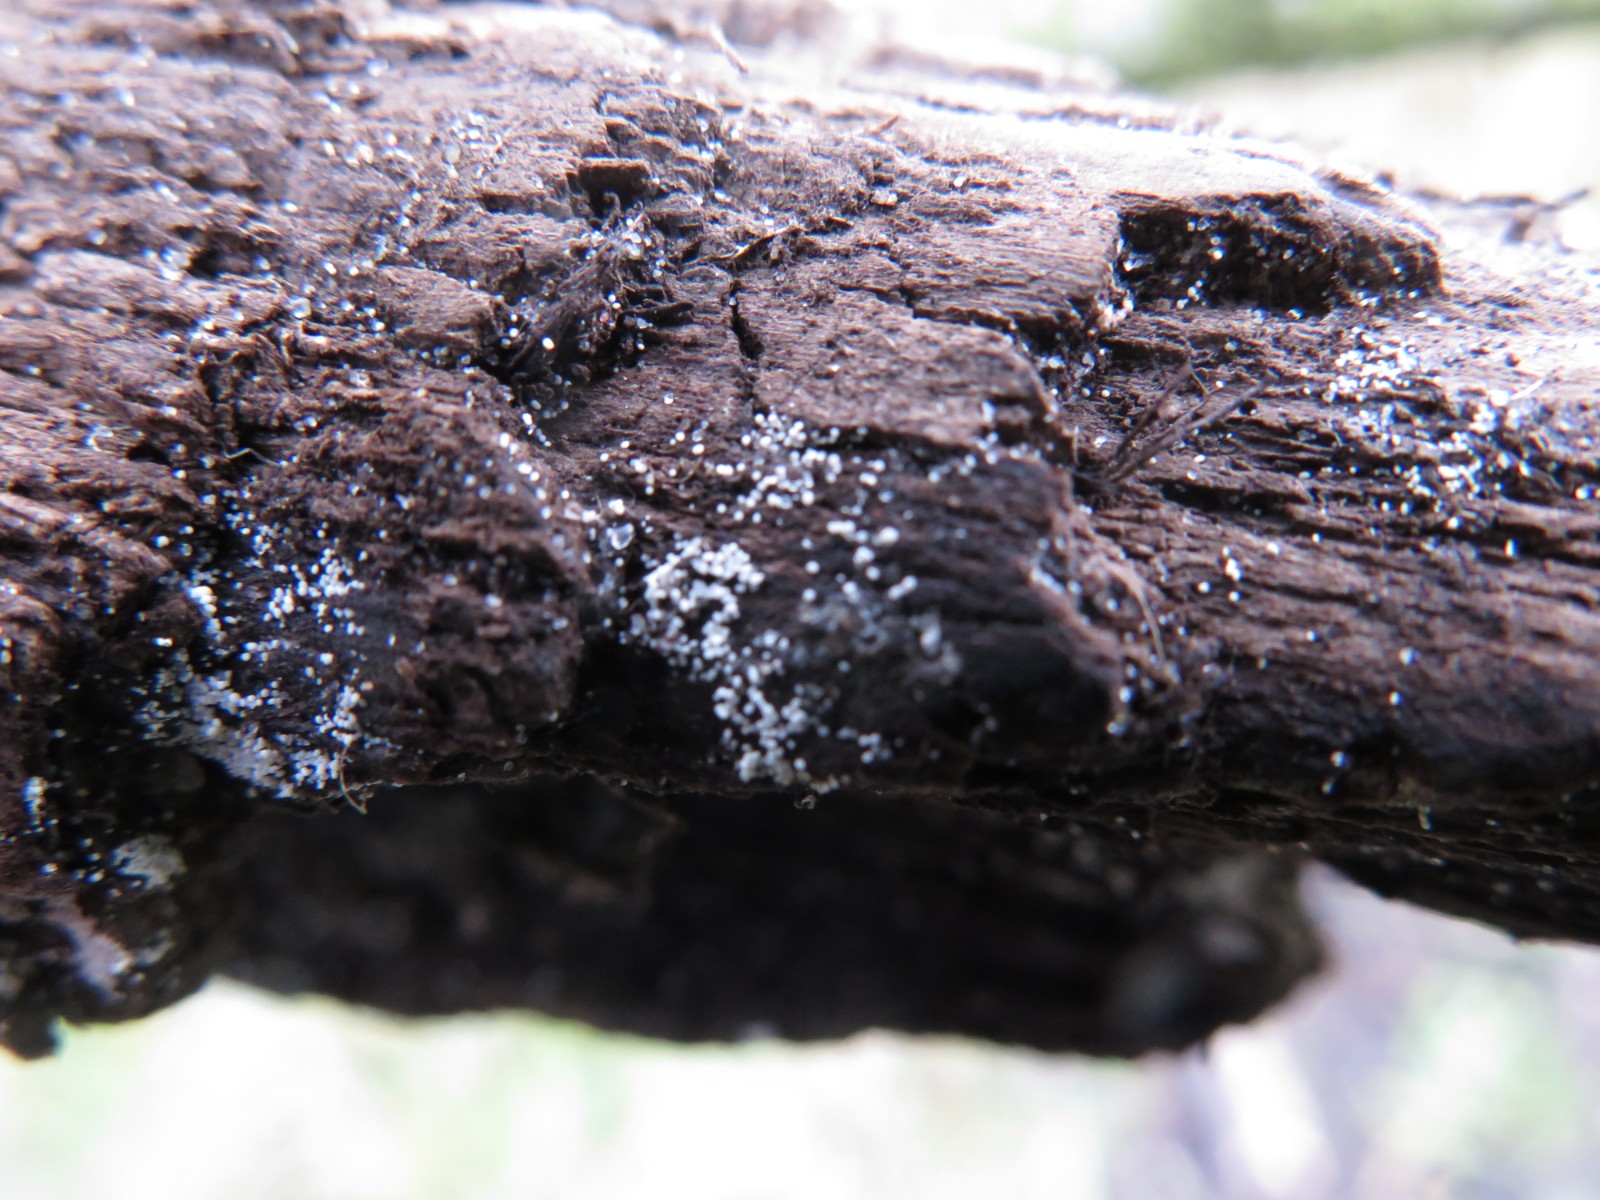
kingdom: Fungi
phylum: Basidiomycota
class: Agaricomycetes
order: Polyporales
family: Meruliaceae
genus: Bulbillomyces
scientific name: Bulbillomyces farinosus
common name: æg-kalkskind
